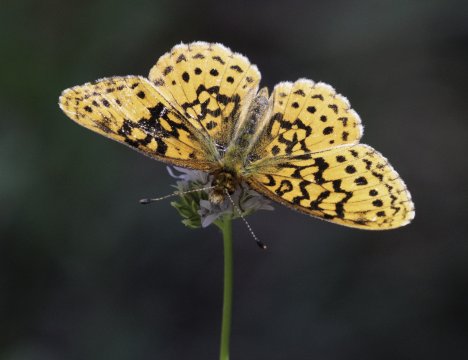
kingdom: Animalia
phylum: Arthropoda
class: Insecta
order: Lepidoptera
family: Nymphalidae
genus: Boloria
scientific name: Boloria epithore
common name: Pacific Fritillary
